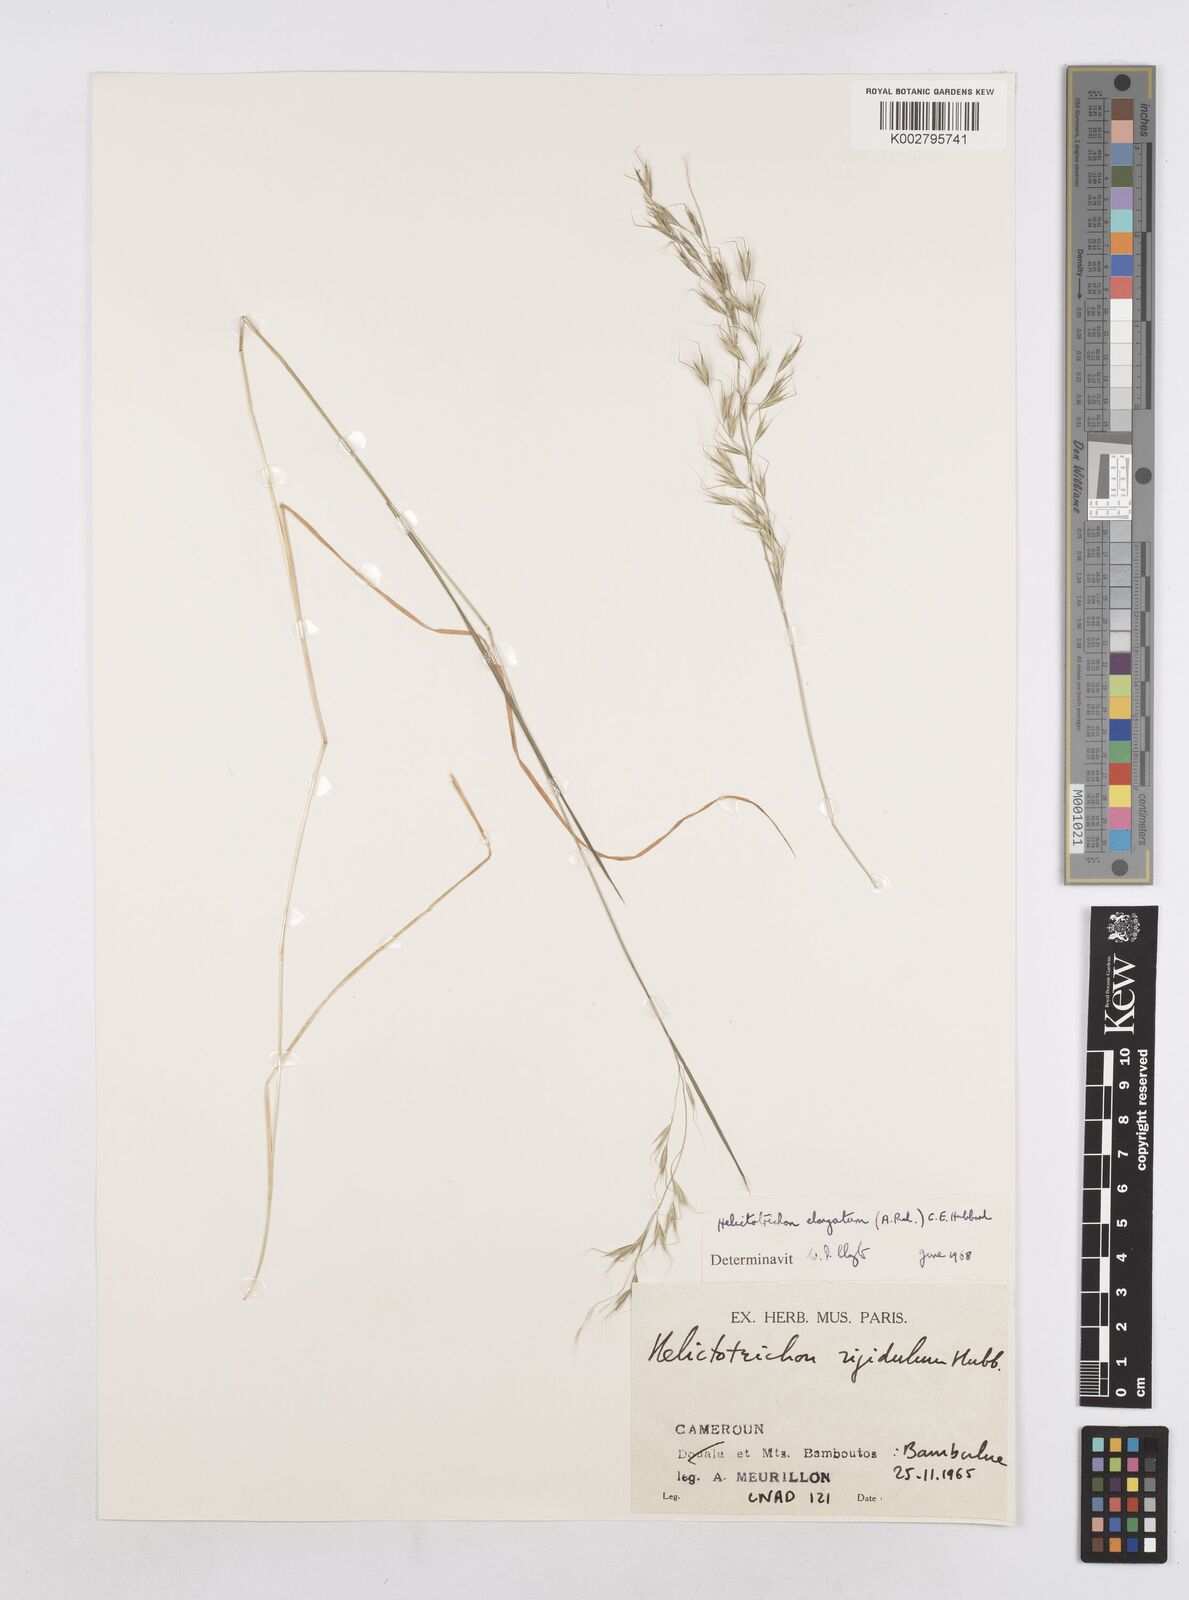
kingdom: Plantae
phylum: Tracheophyta
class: Liliopsida
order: Poales
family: Poaceae
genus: Trisetopsis
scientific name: Trisetopsis elongata
